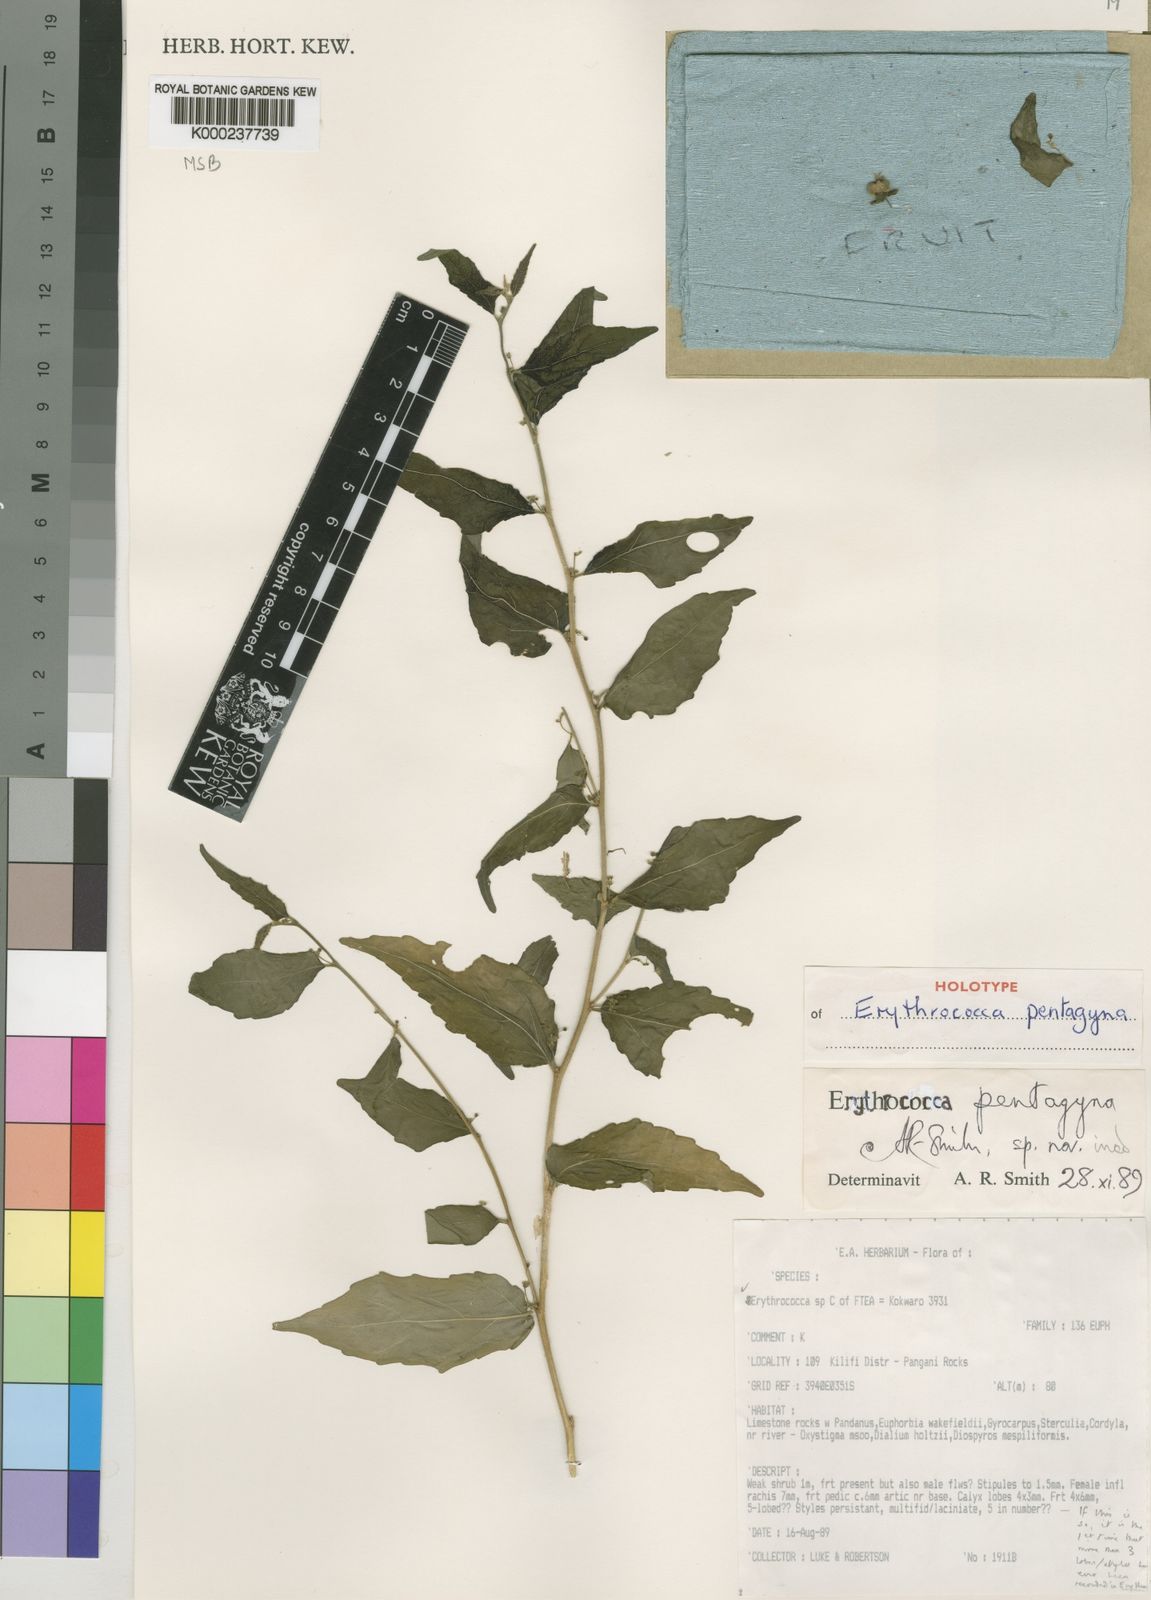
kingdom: Plantae
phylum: Tracheophyta
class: Magnoliopsida
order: Malpighiales
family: Euphorbiaceae
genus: Erythrococca
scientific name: Erythrococca
